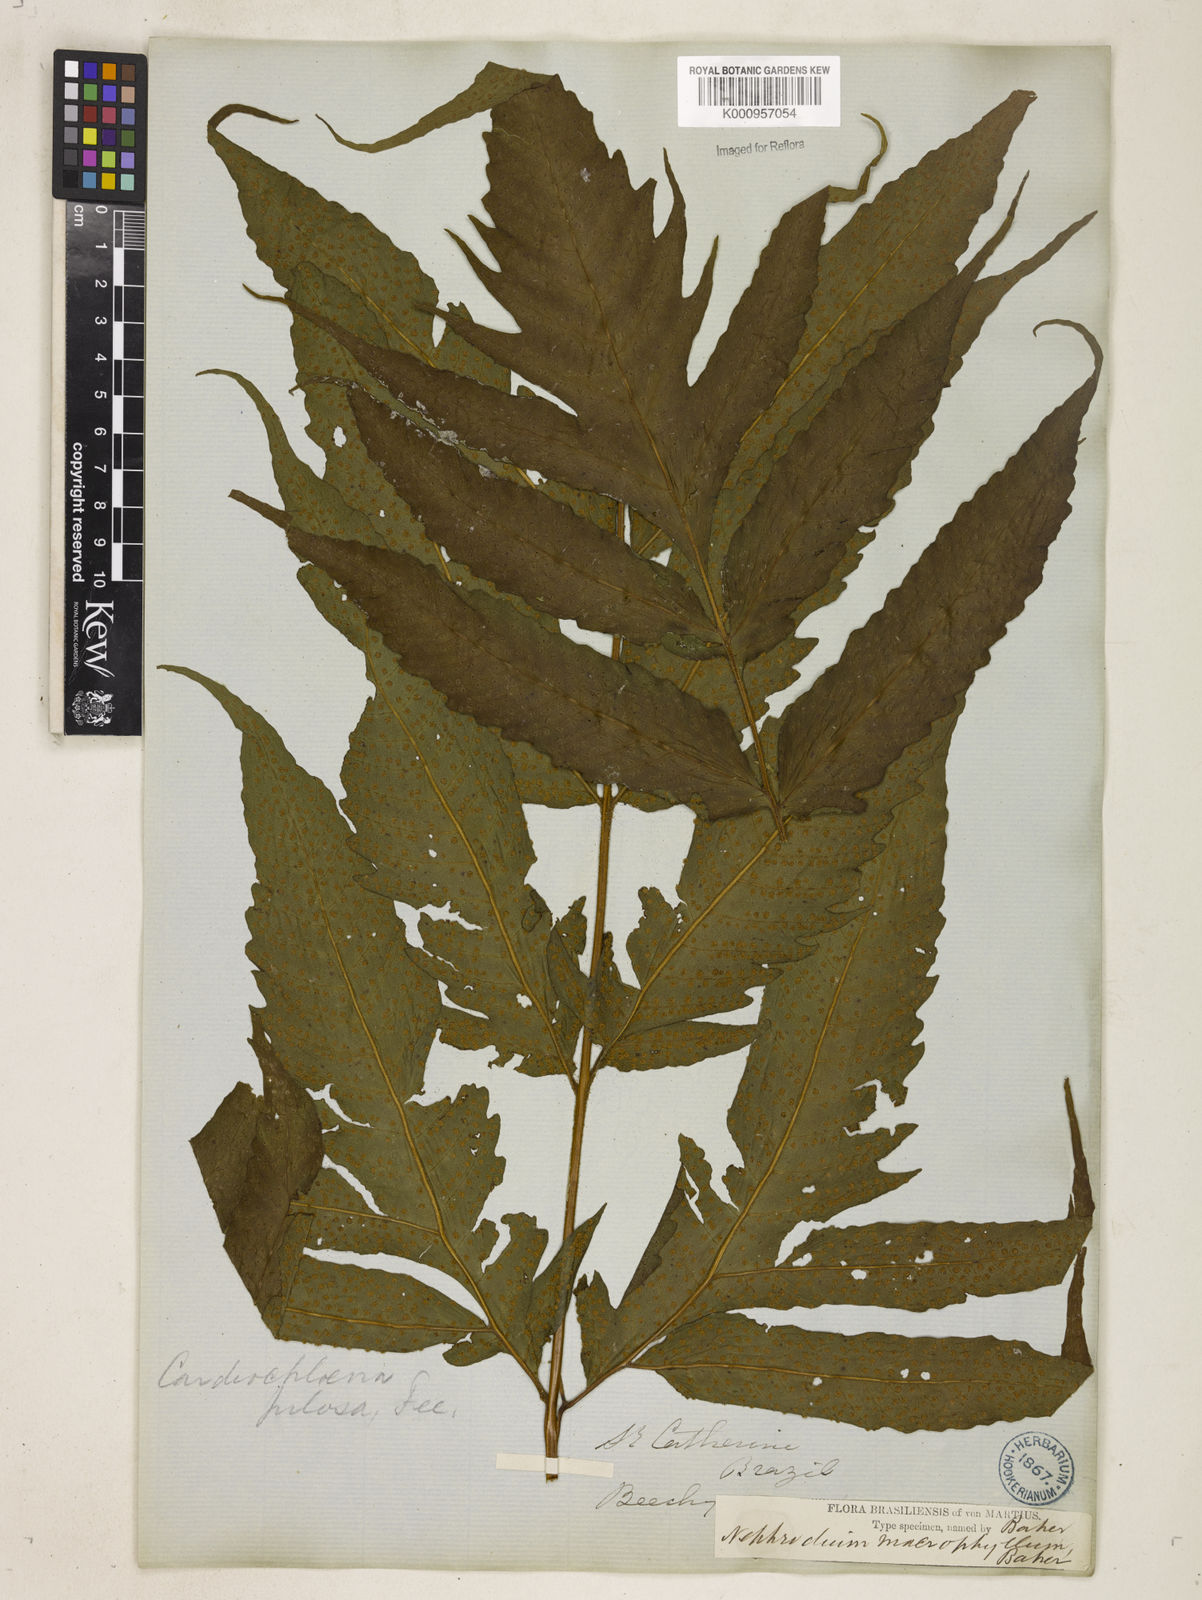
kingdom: Plantae
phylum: Tracheophyta
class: Polypodiopsida
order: Polypodiales
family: Tectariaceae
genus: Tectaria
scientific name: Tectaria incisa
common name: Incised halberd fern
